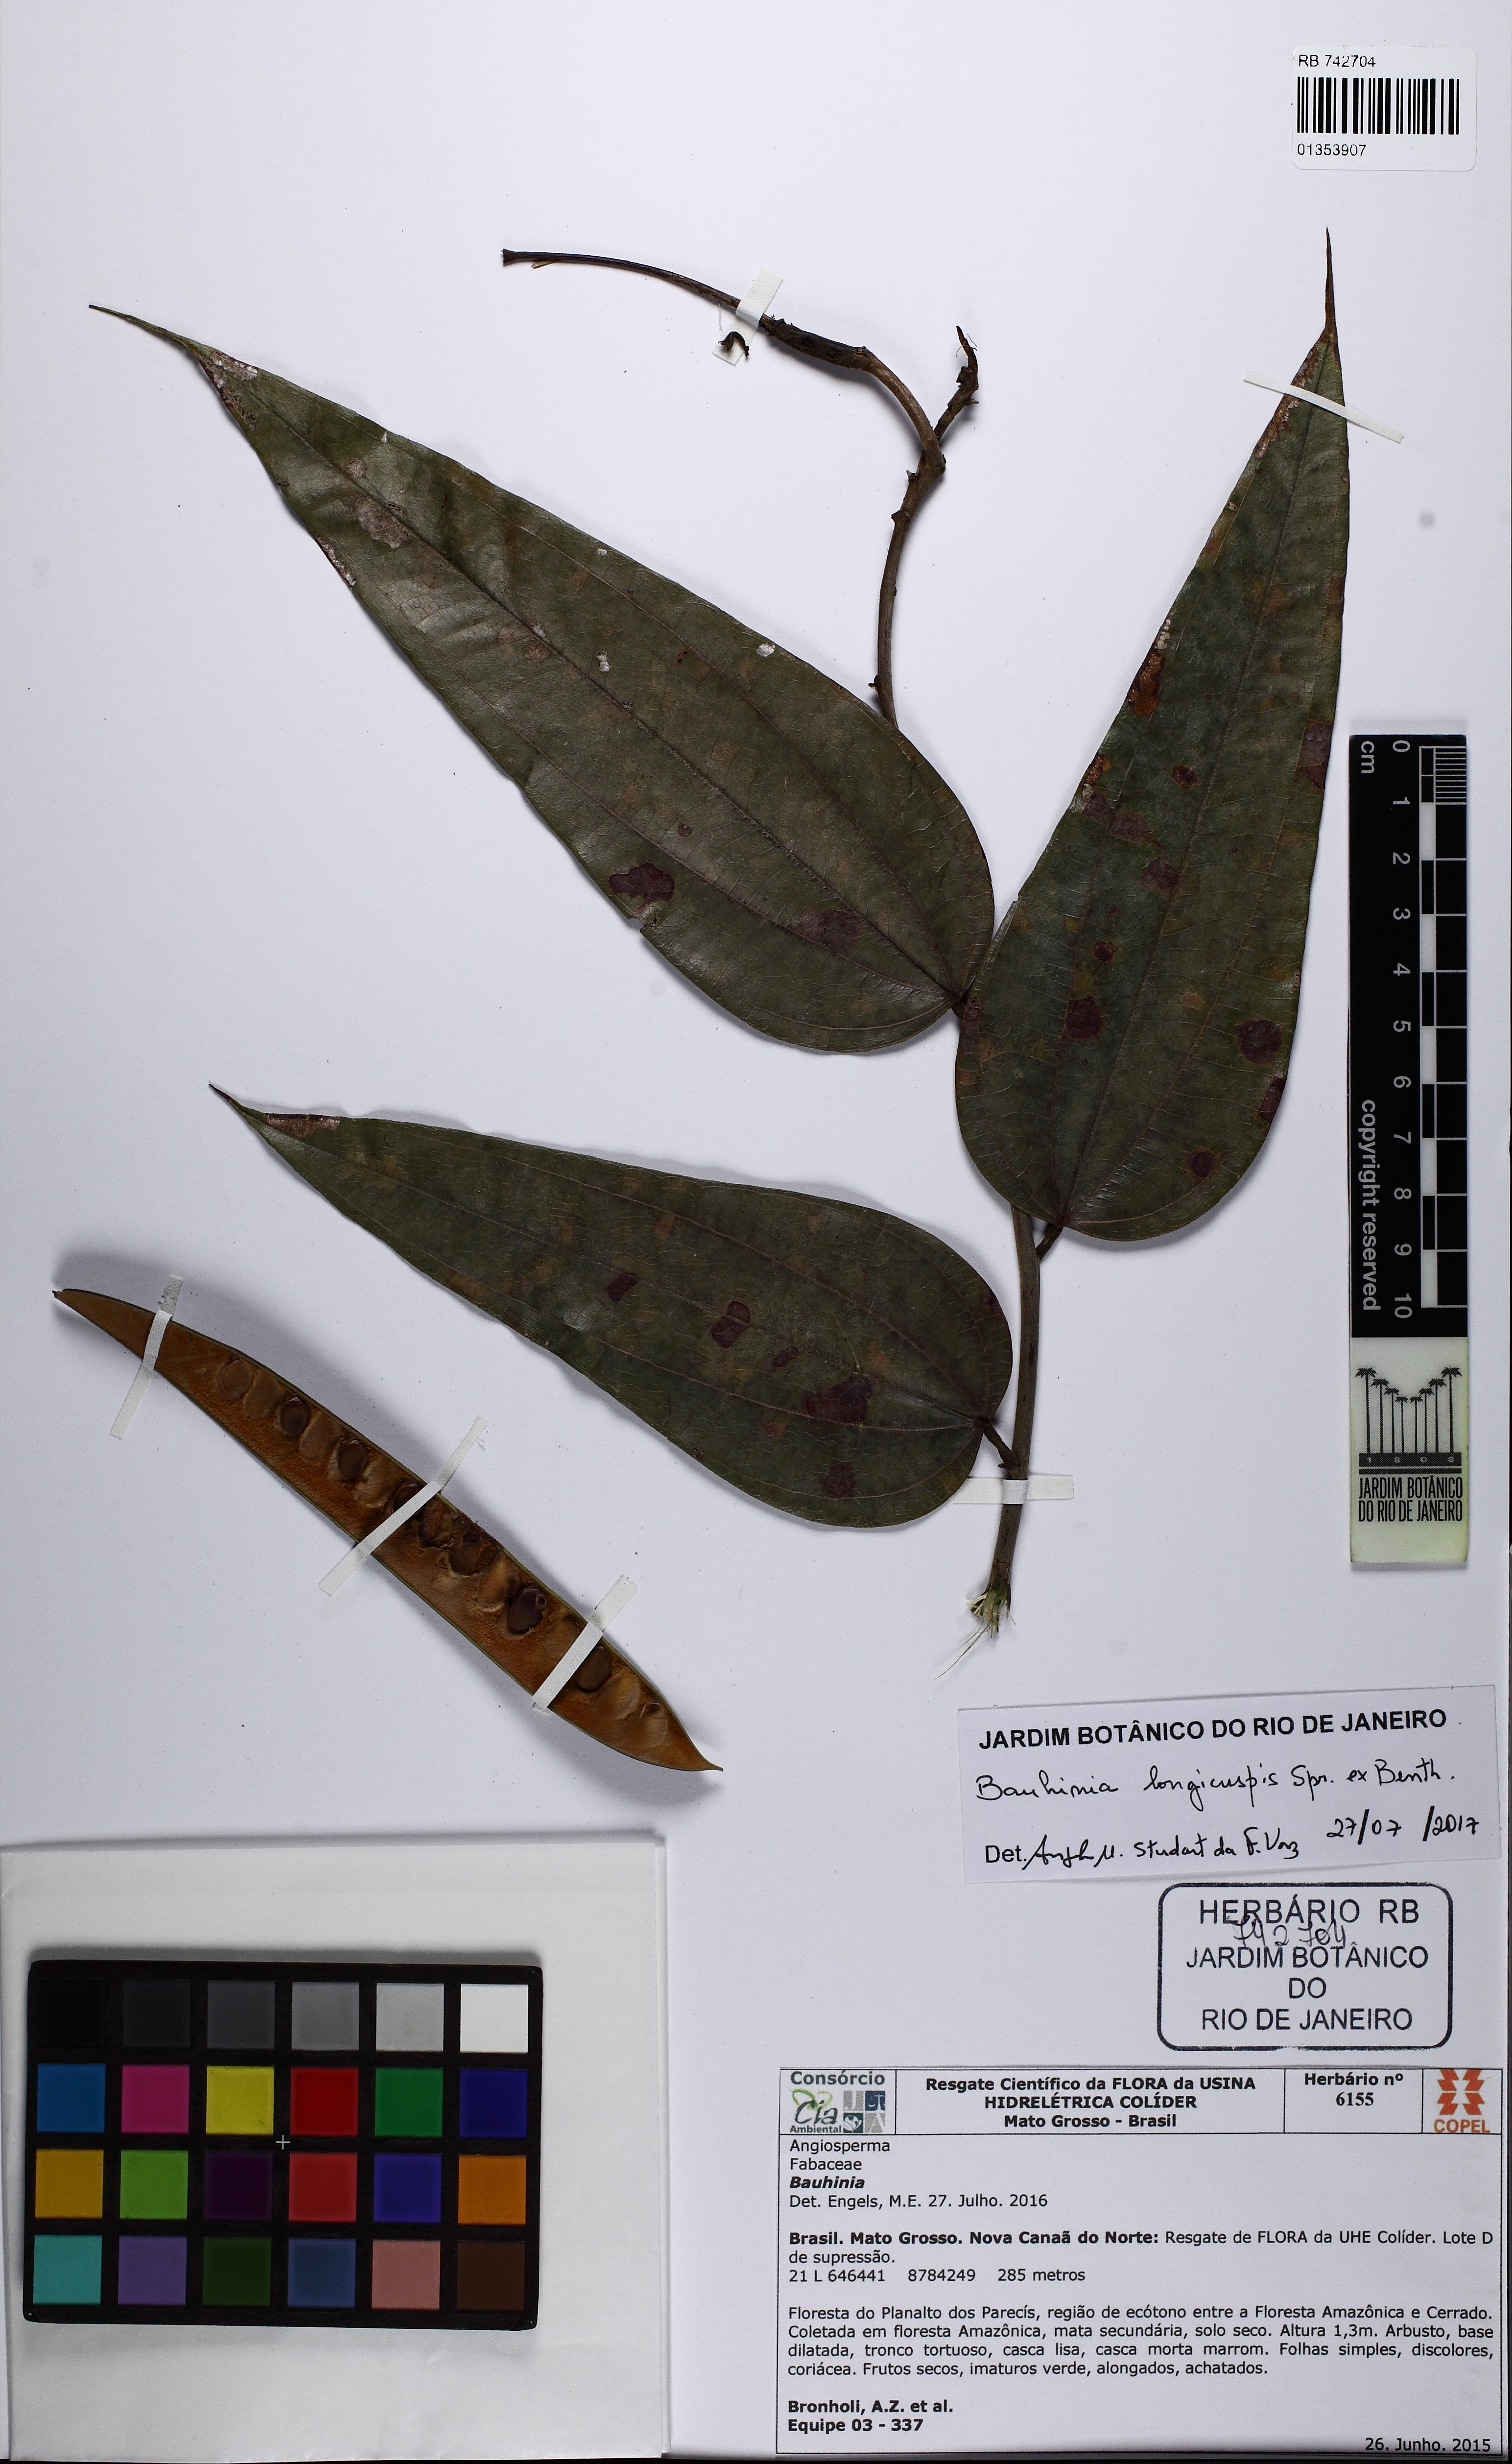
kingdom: Plantae
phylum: Tracheophyta
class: Magnoliopsida
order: Fabales
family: Fabaceae
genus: Bauhinia
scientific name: Bauhinia longicuspis
